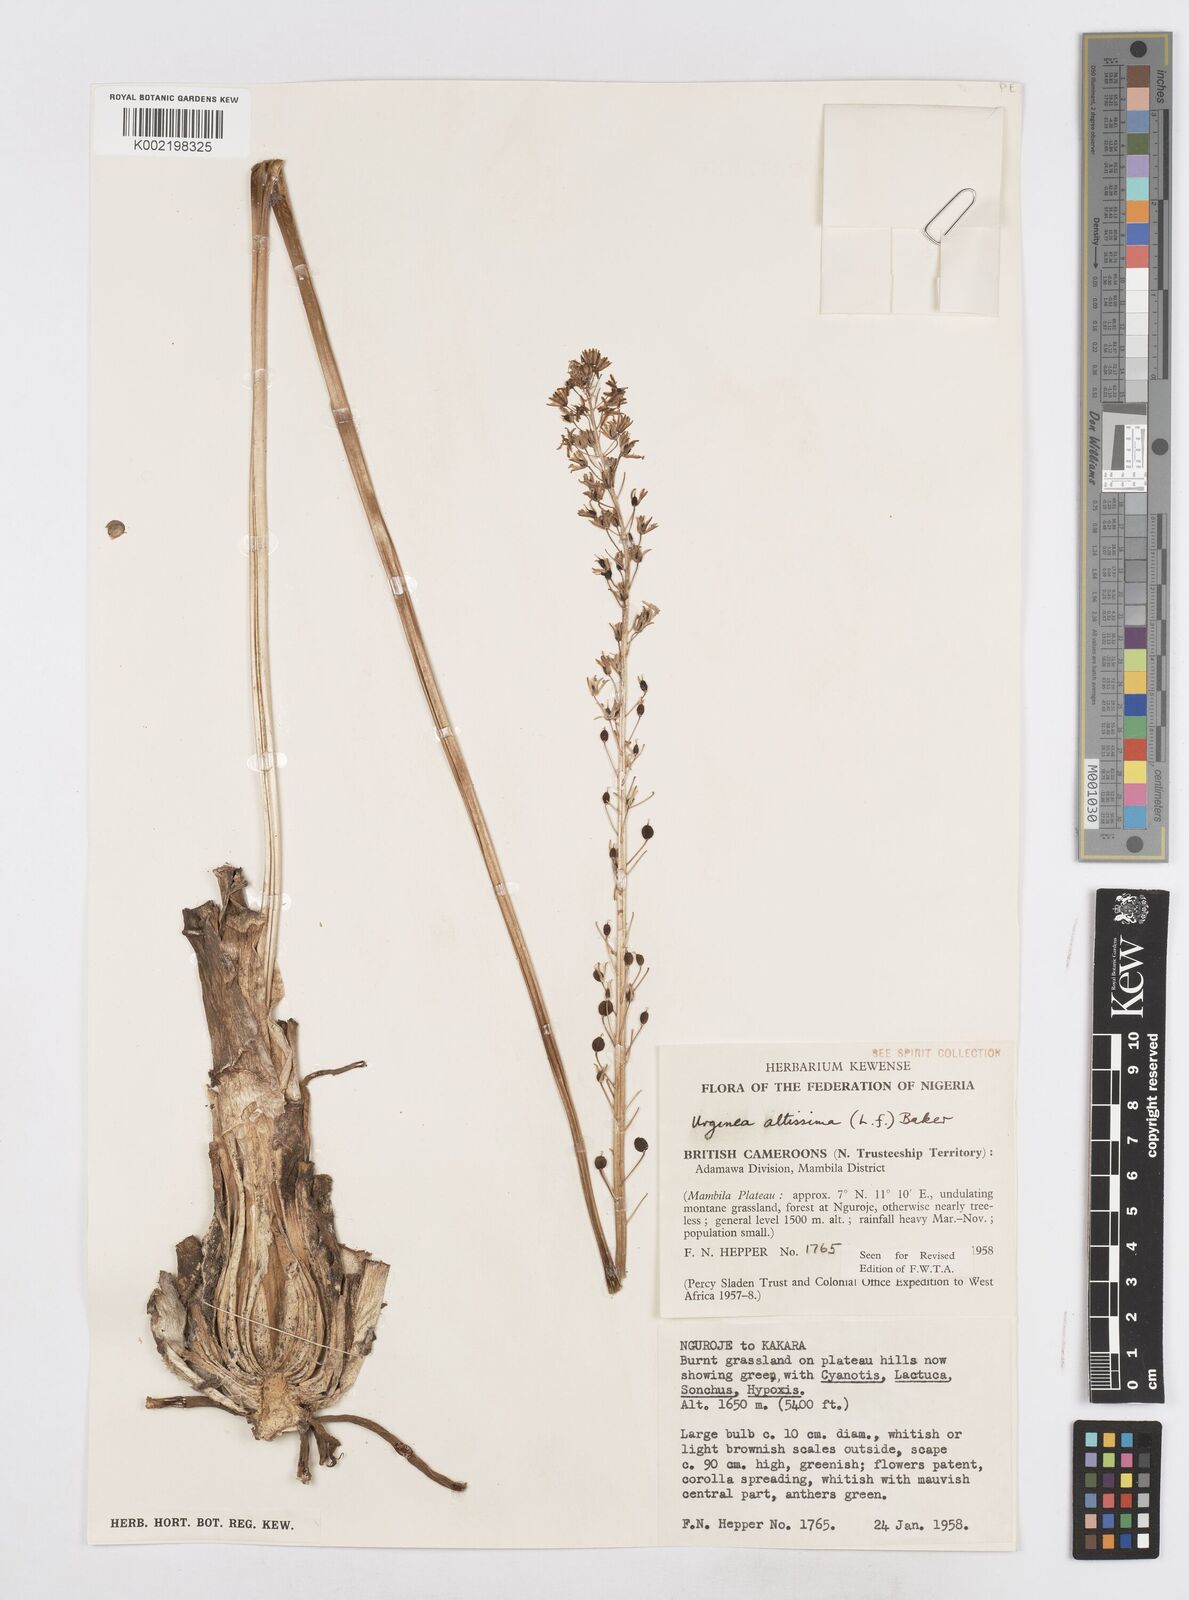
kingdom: Plantae
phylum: Tracheophyta
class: Liliopsida
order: Asparagales
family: Asparagaceae
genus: Drimia
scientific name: Drimia altissima
